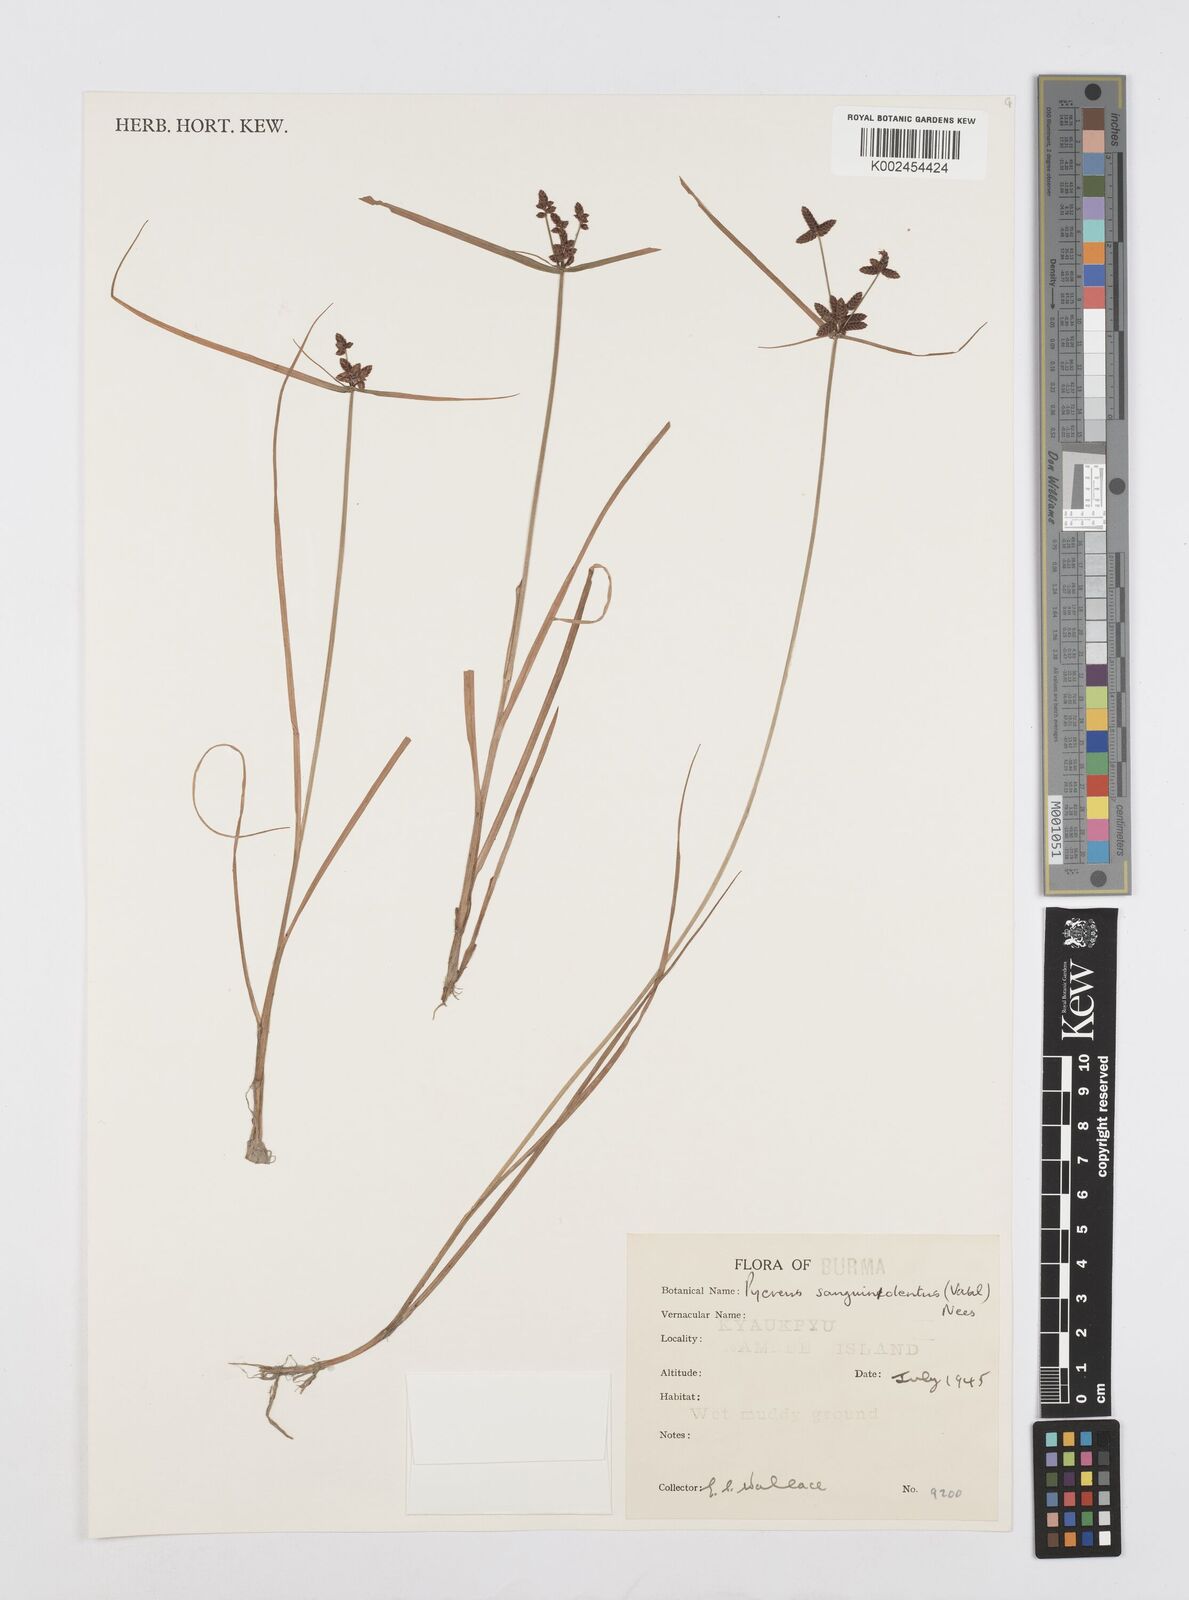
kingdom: Plantae
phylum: Tracheophyta
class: Liliopsida
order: Poales
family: Cyperaceae
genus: Cyperus
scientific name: Cyperus sanguinolentus
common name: Purpleglume flatsedge
